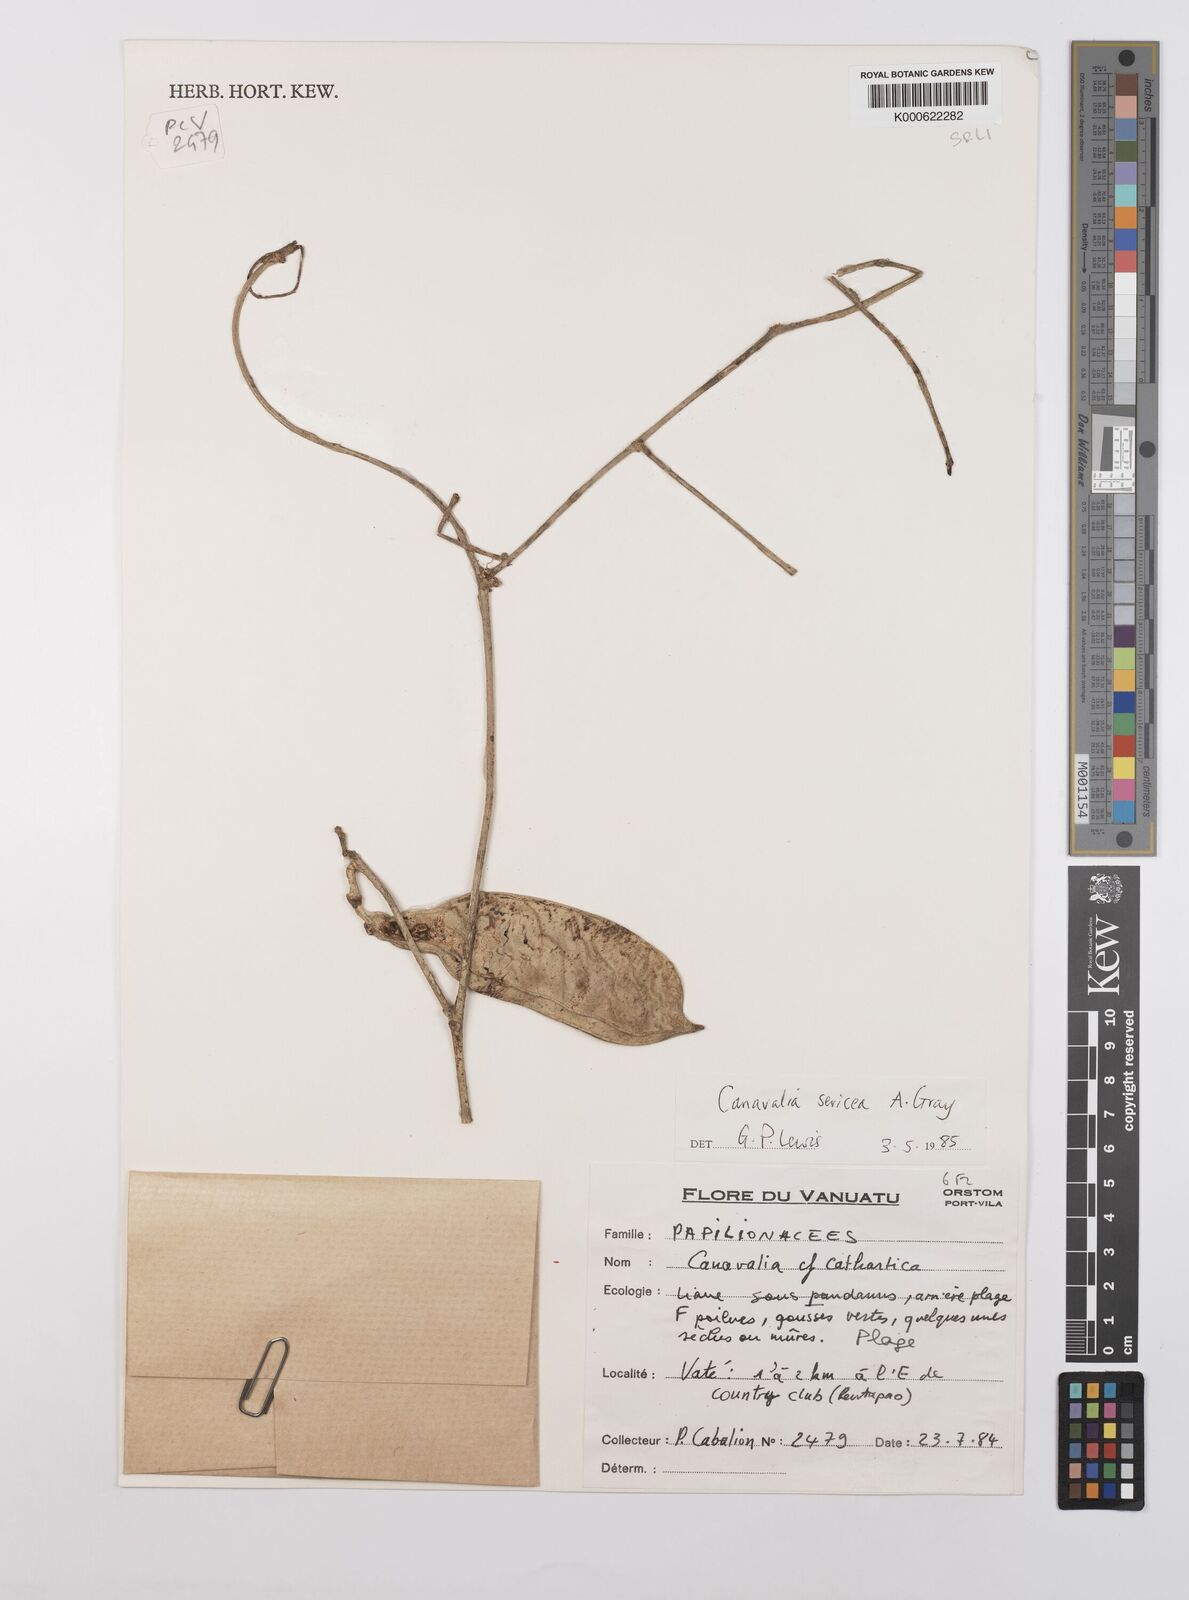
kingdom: Plantae
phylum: Tracheophyta
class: Magnoliopsida
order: Fabales
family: Fabaceae
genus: Canavalia
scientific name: Canavalia sericea
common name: Silky jackbean
